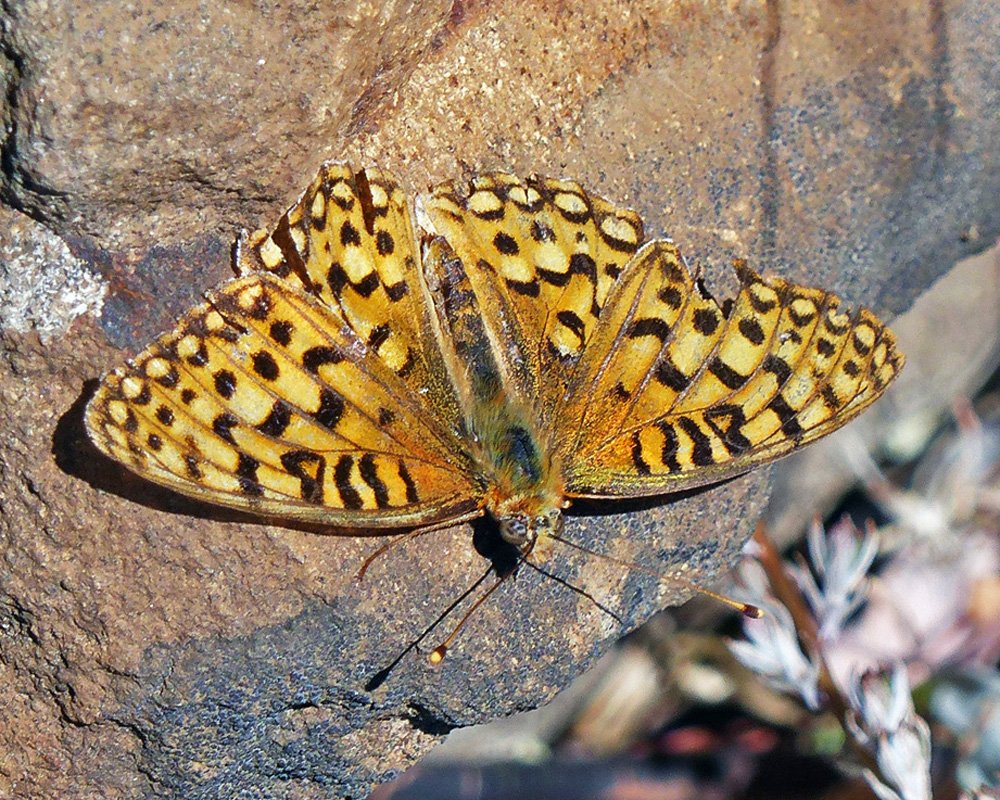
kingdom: Animalia
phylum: Arthropoda
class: Insecta
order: Lepidoptera
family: Nymphalidae
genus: Speyeria
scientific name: Speyeria coronis
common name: Coronis Fritillary
